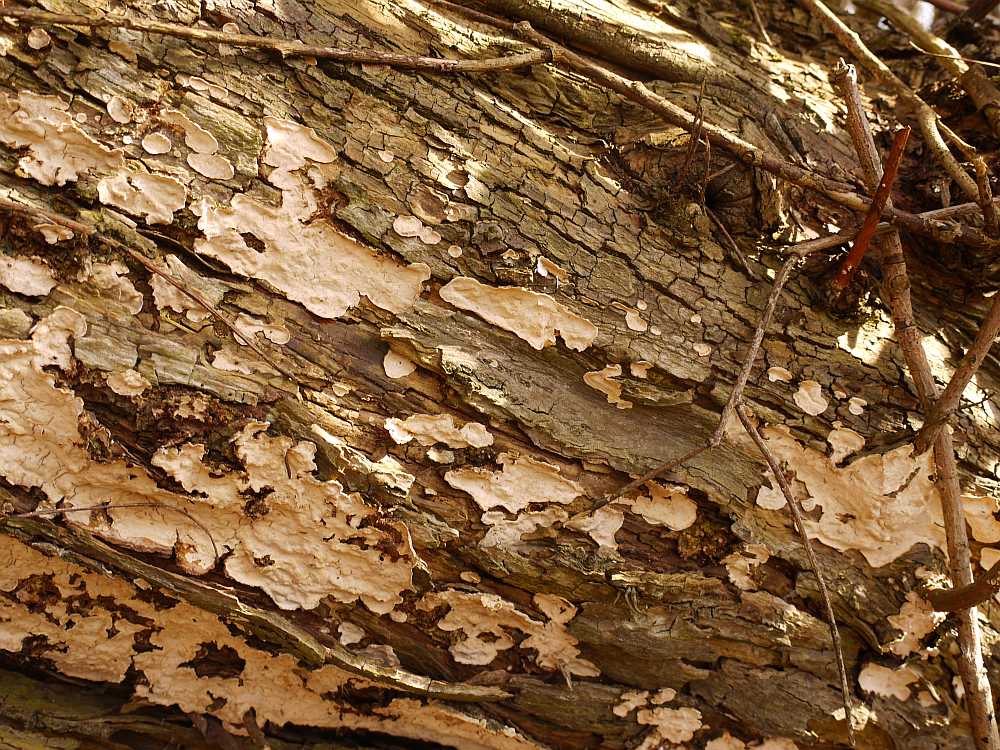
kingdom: Fungi
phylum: Basidiomycota
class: Agaricomycetes
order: Russulales
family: Stereaceae
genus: Stereum
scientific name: Stereum rugosum
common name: rynket lædersvamp
